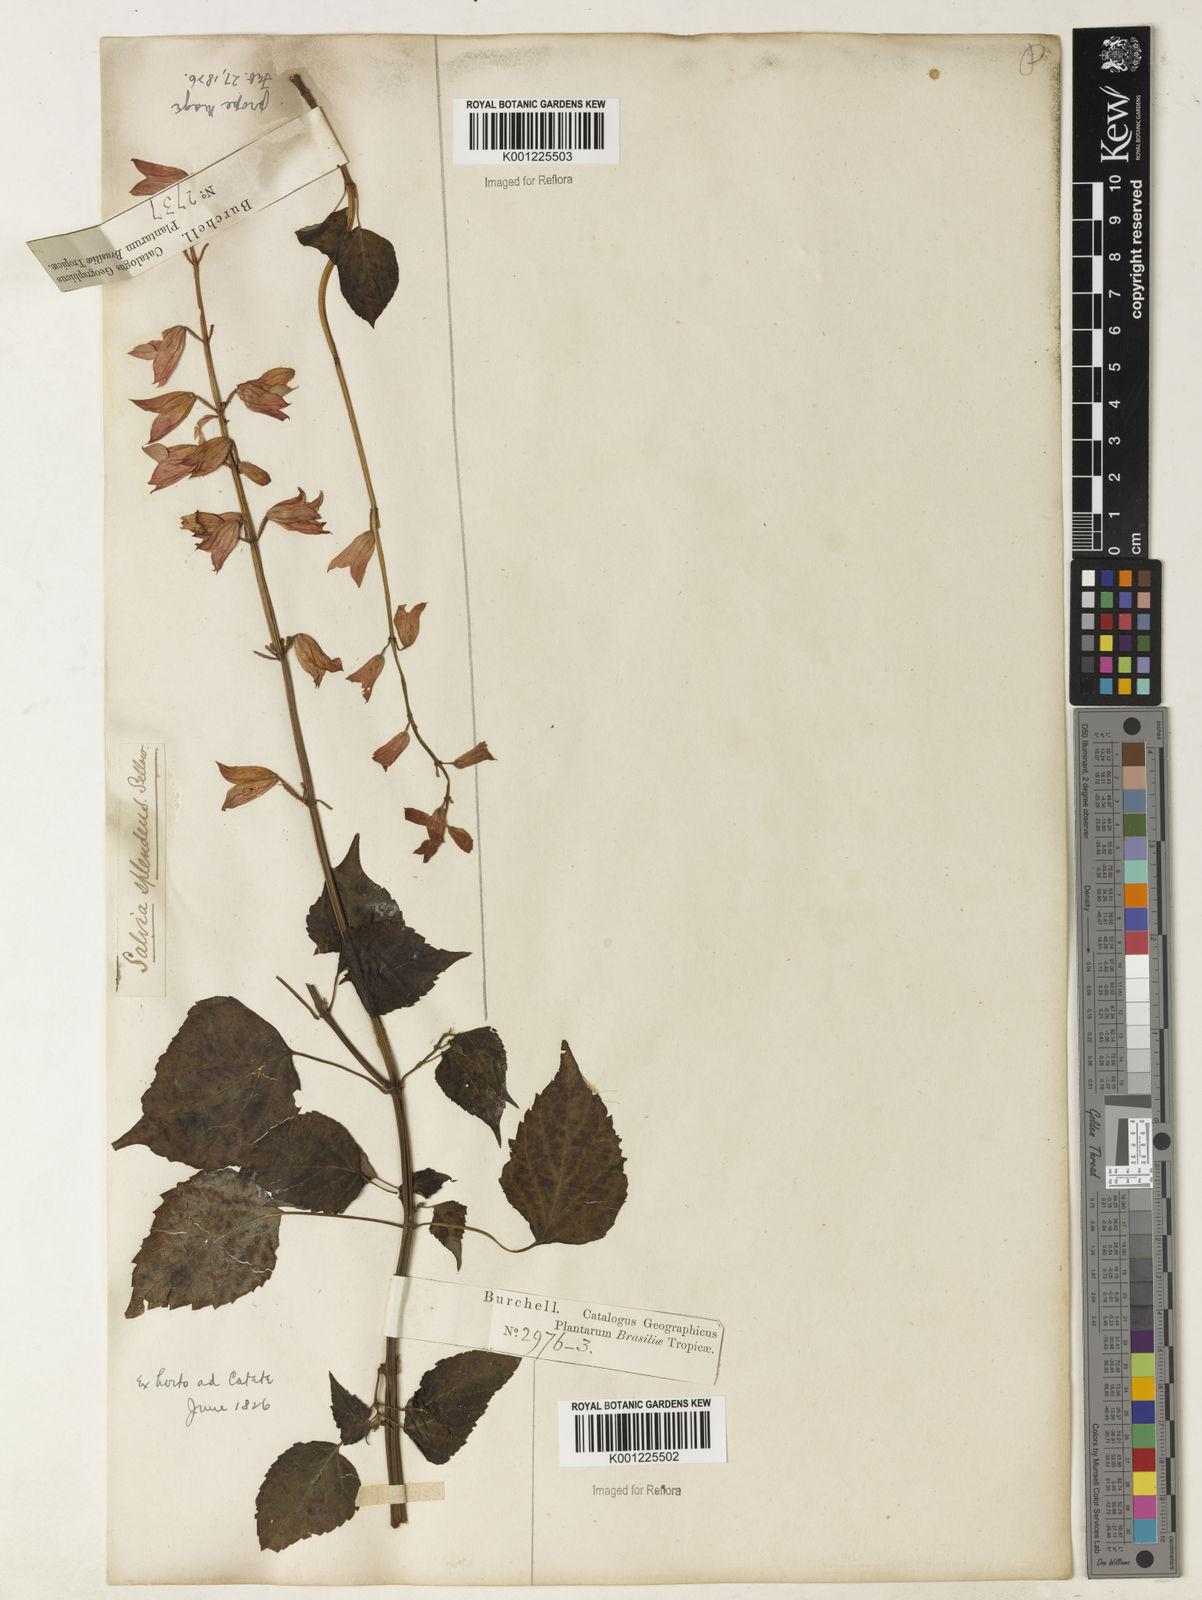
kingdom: Plantae
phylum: Tracheophyta
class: Magnoliopsida
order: Lamiales
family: Lamiaceae
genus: Salvia
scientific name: Salvia
